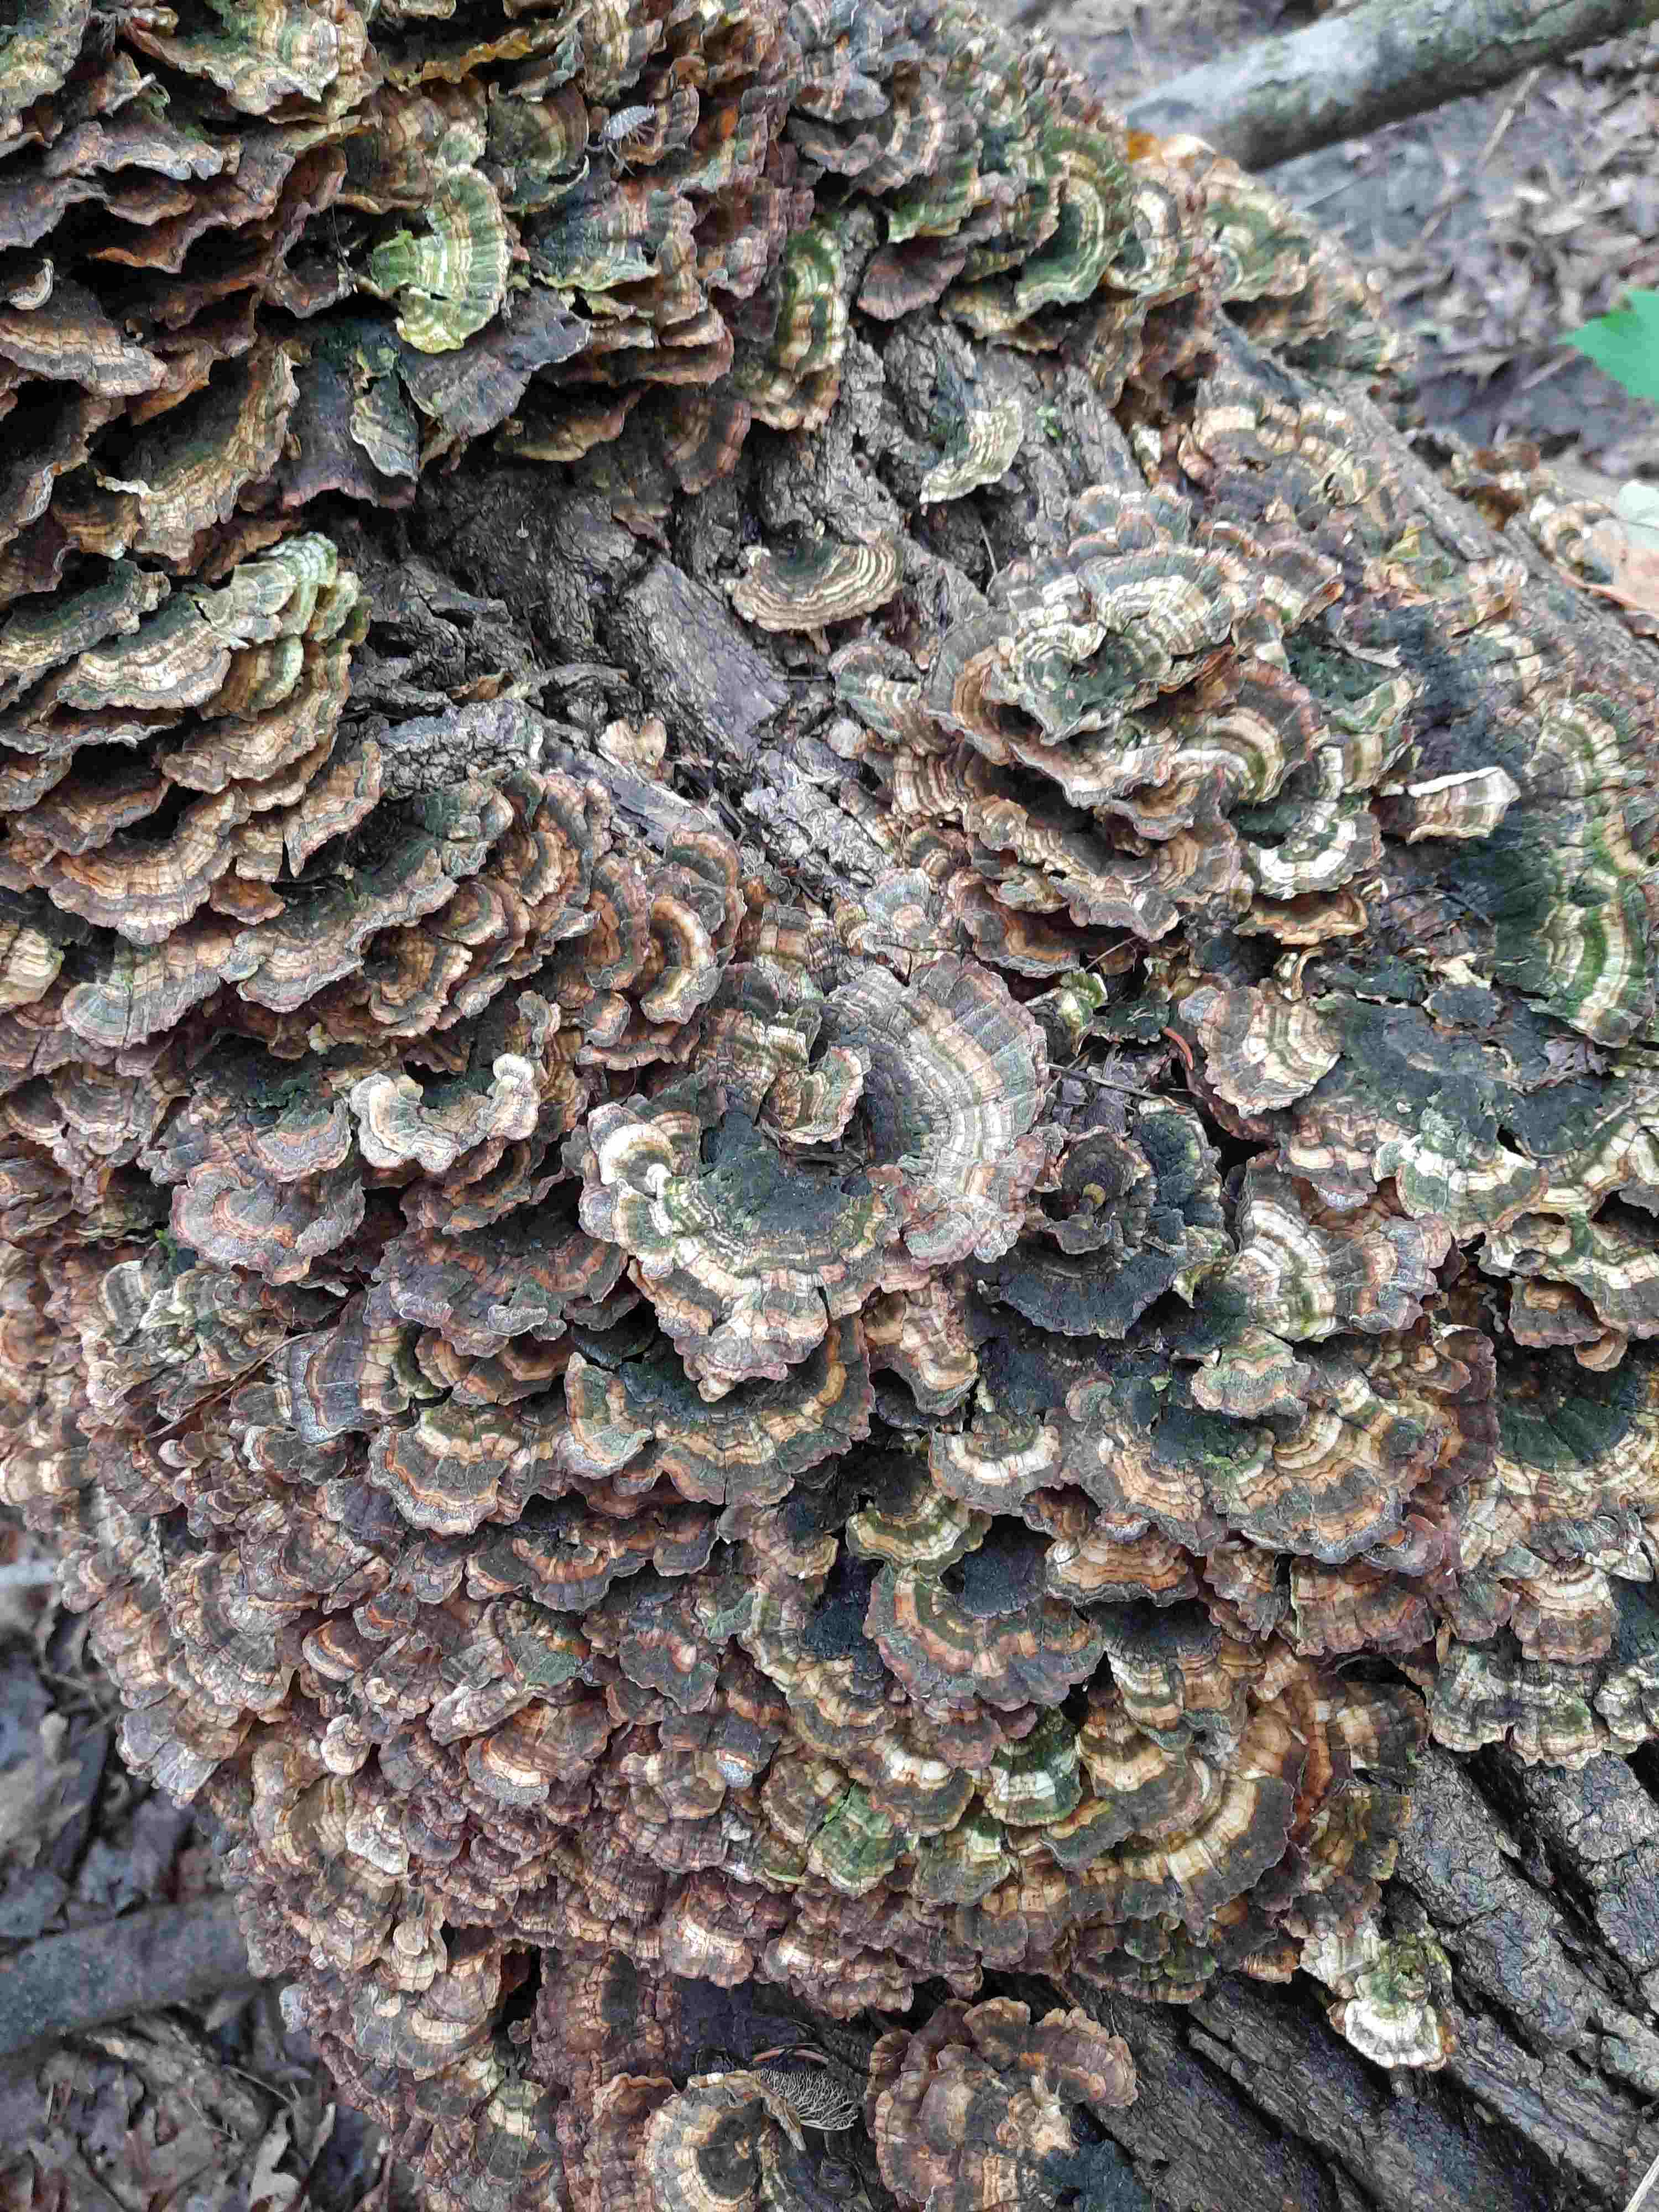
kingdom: Fungi
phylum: Basidiomycota
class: Agaricomycetes
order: Polyporales
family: Polyporaceae
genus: Trametes
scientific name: Trametes versicolor
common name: broget læderporesvamp
